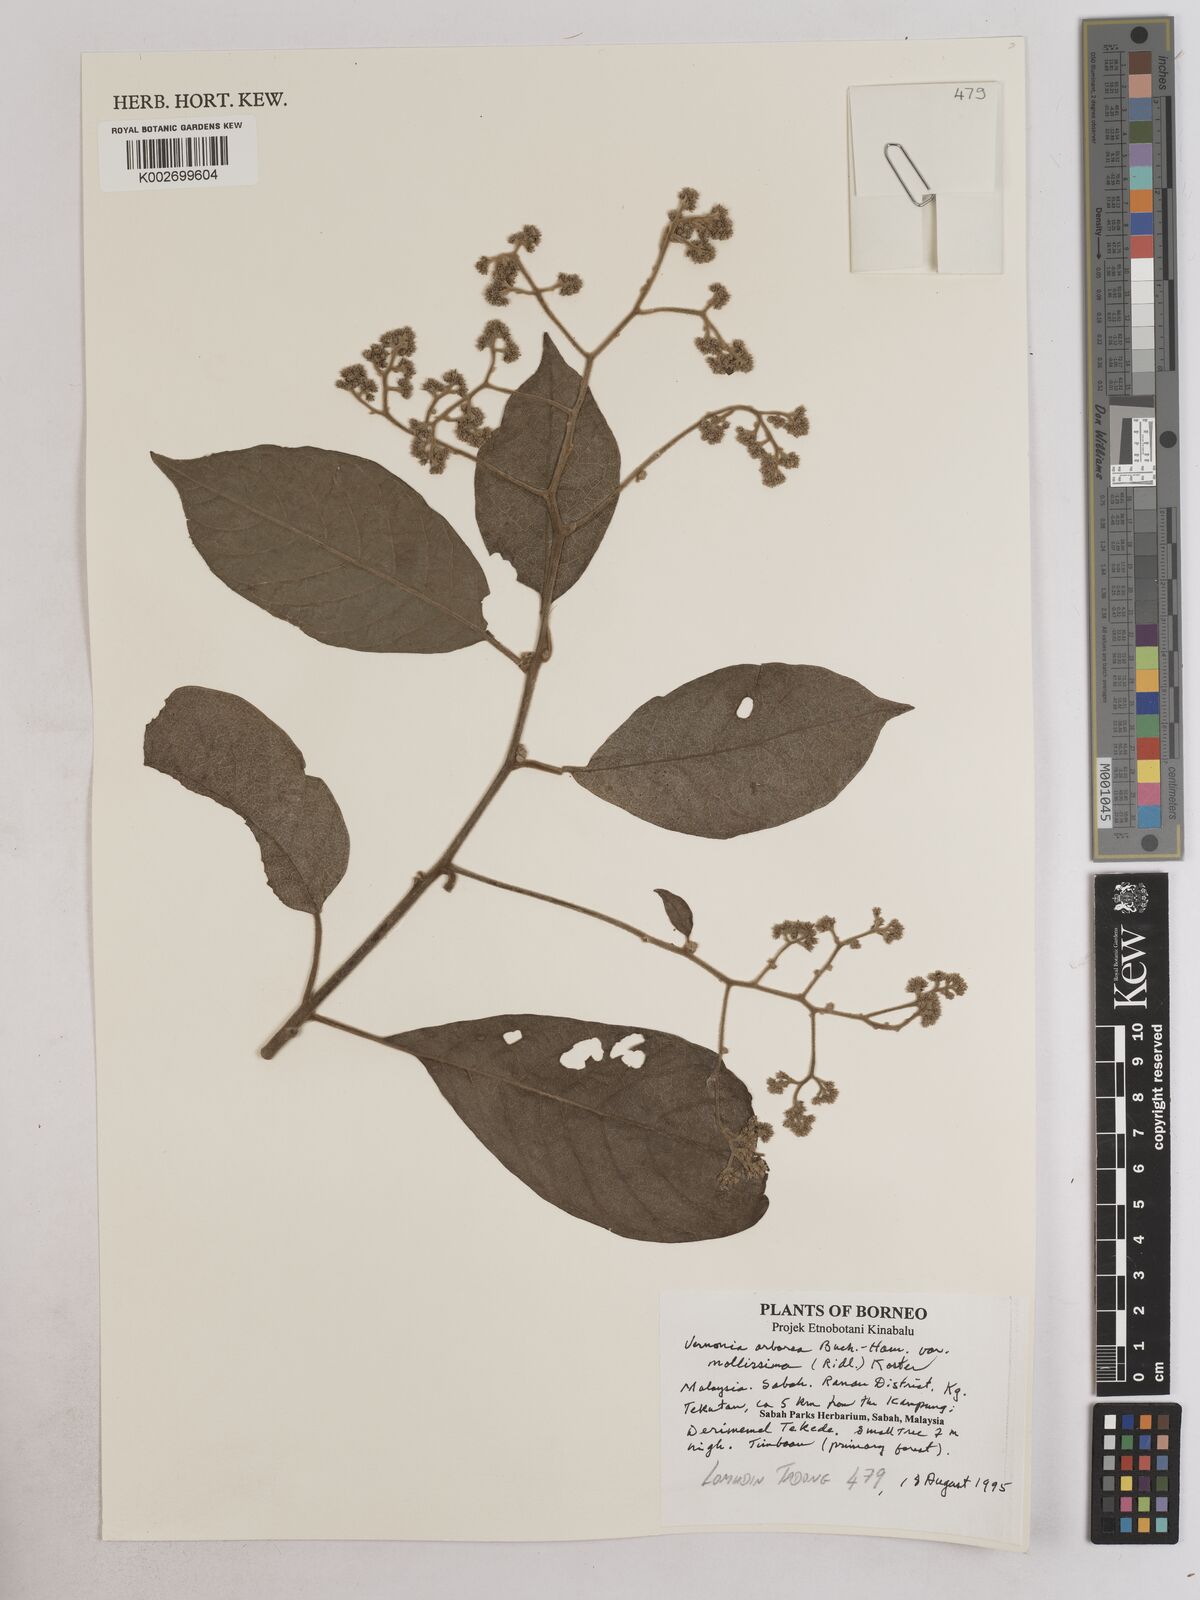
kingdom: Plantae
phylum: Tracheophyta
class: Magnoliopsida
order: Asterales
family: Asteraceae
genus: Strobocalyx
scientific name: Strobocalyx arborea
